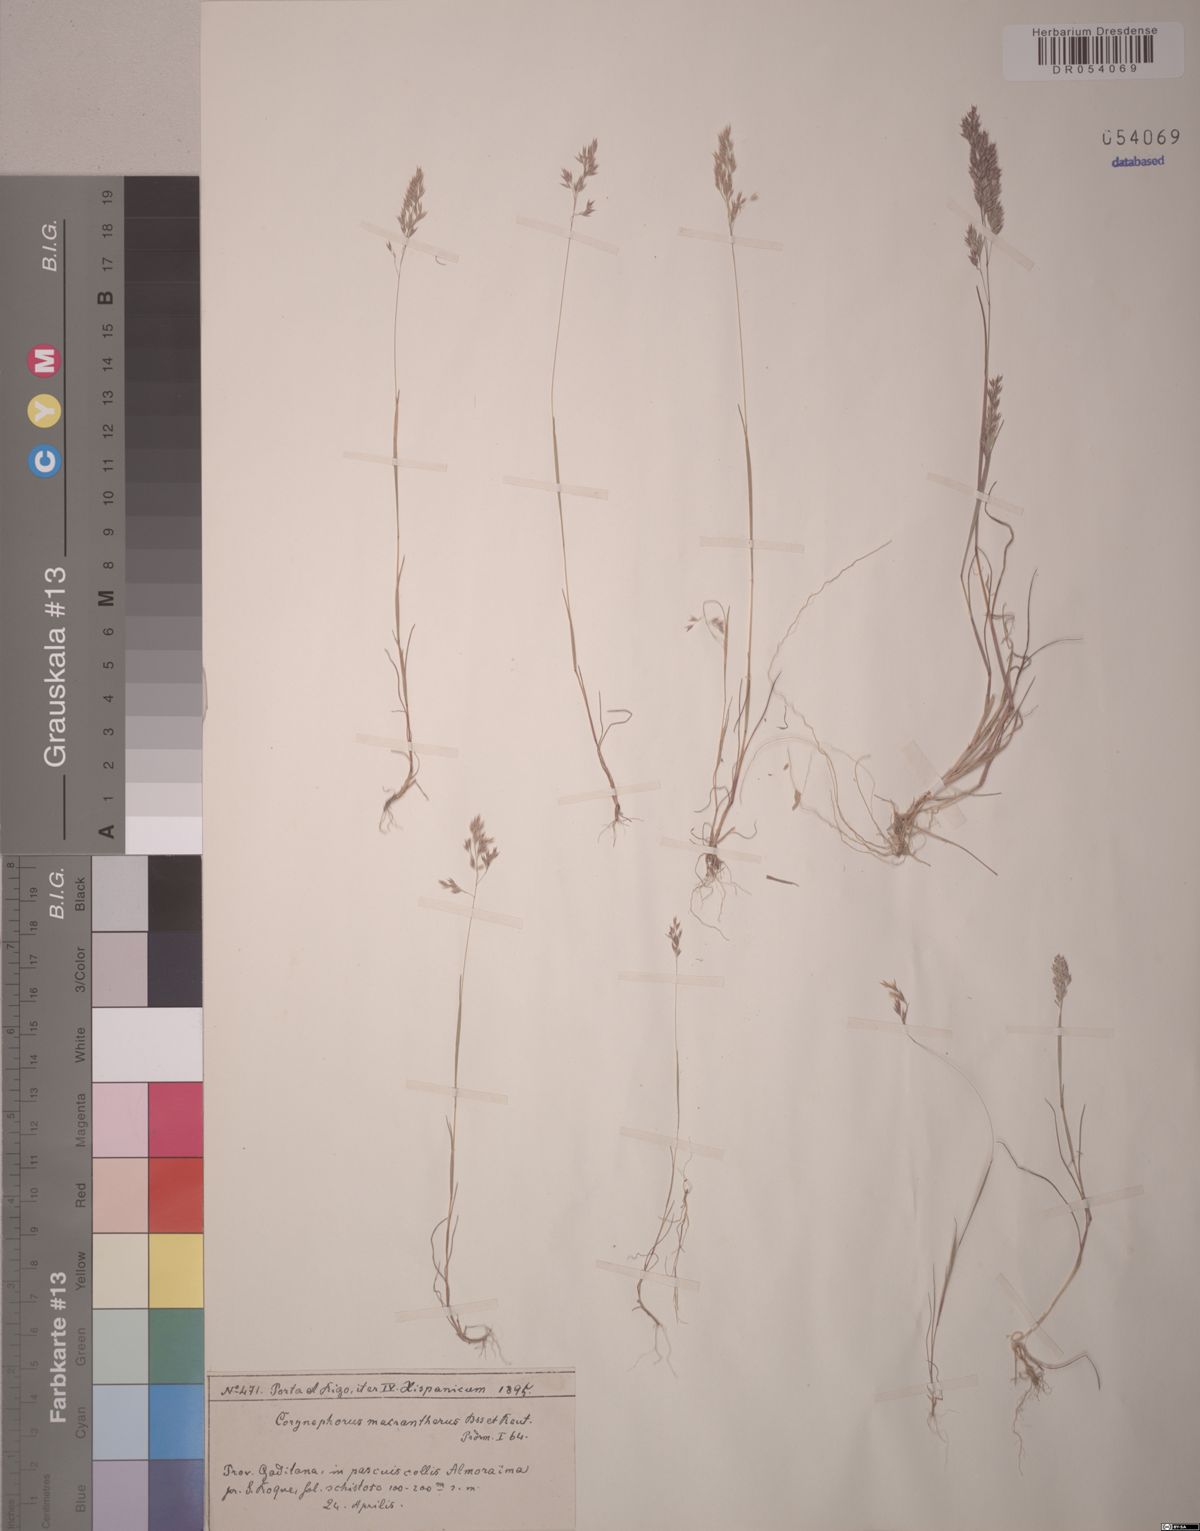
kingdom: Plantae
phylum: Tracheophyta
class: Liliopsida
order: Poales
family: Poaceae
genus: Corynephorus
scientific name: Corynephorus macrantherus
